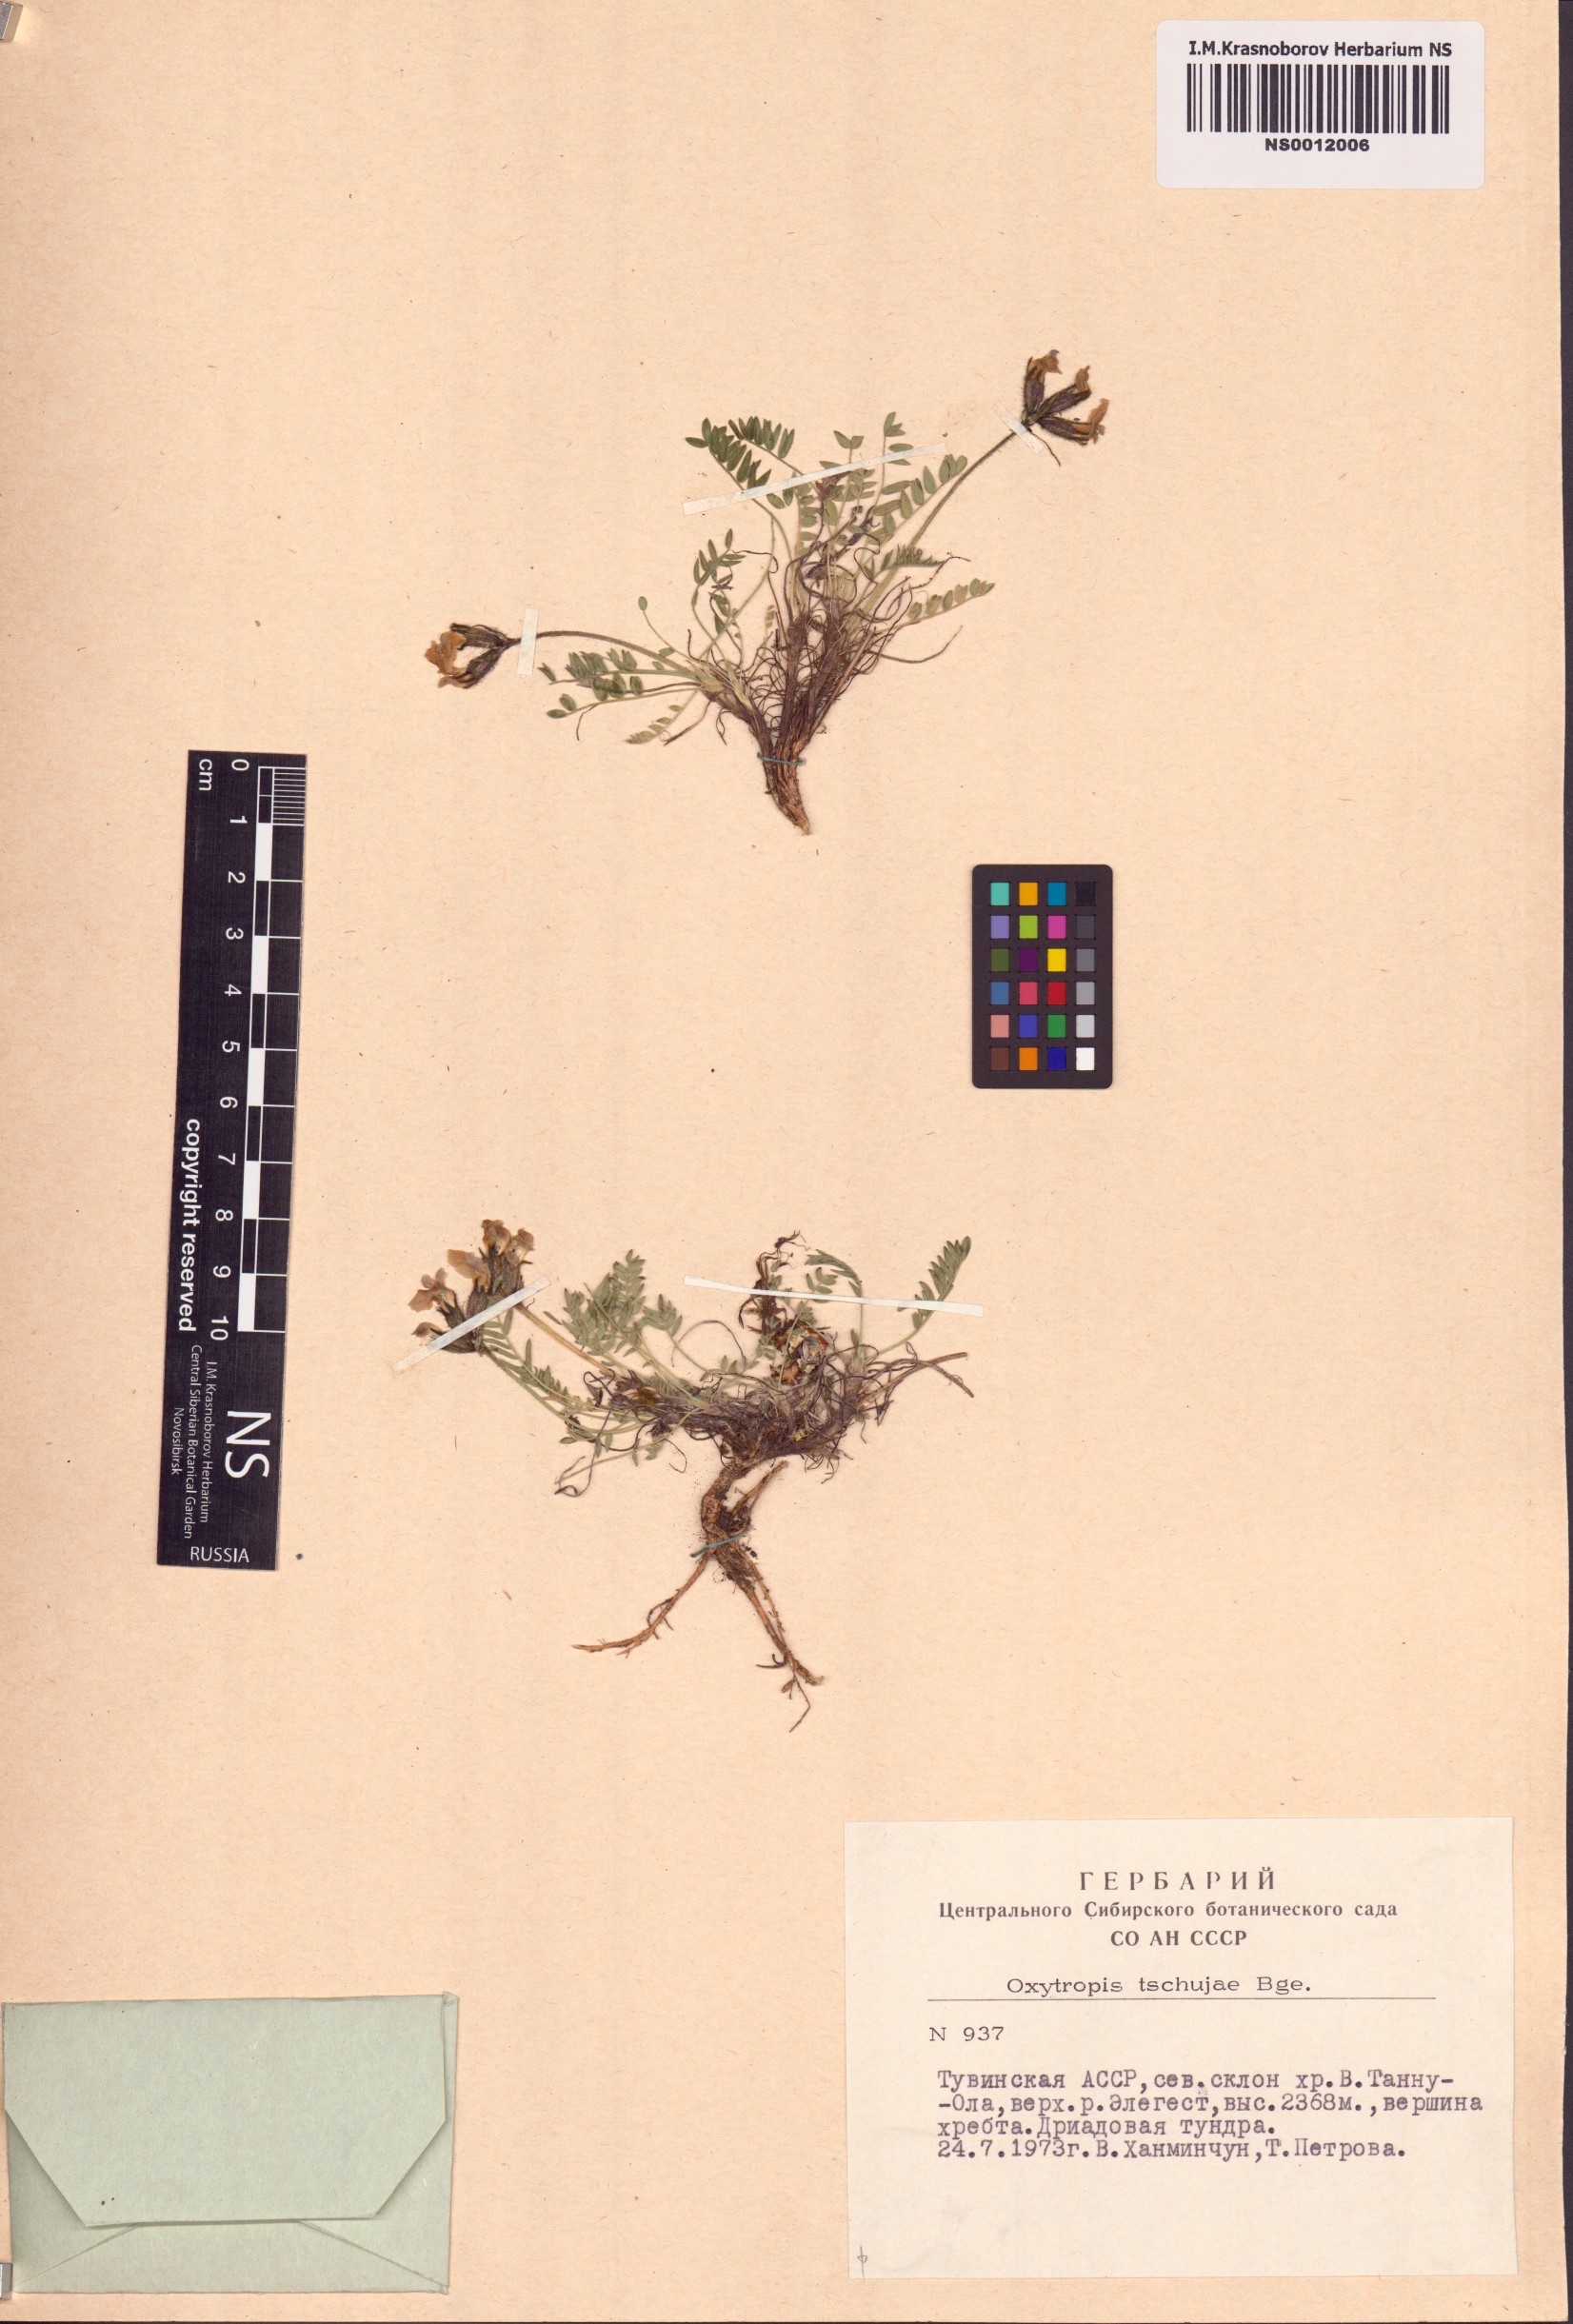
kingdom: Plantae
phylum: Tracheophyta
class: Magnoliopsida
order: Fabales
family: Fabaceae
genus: Oxytropis
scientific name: Oxytropis tschujae
